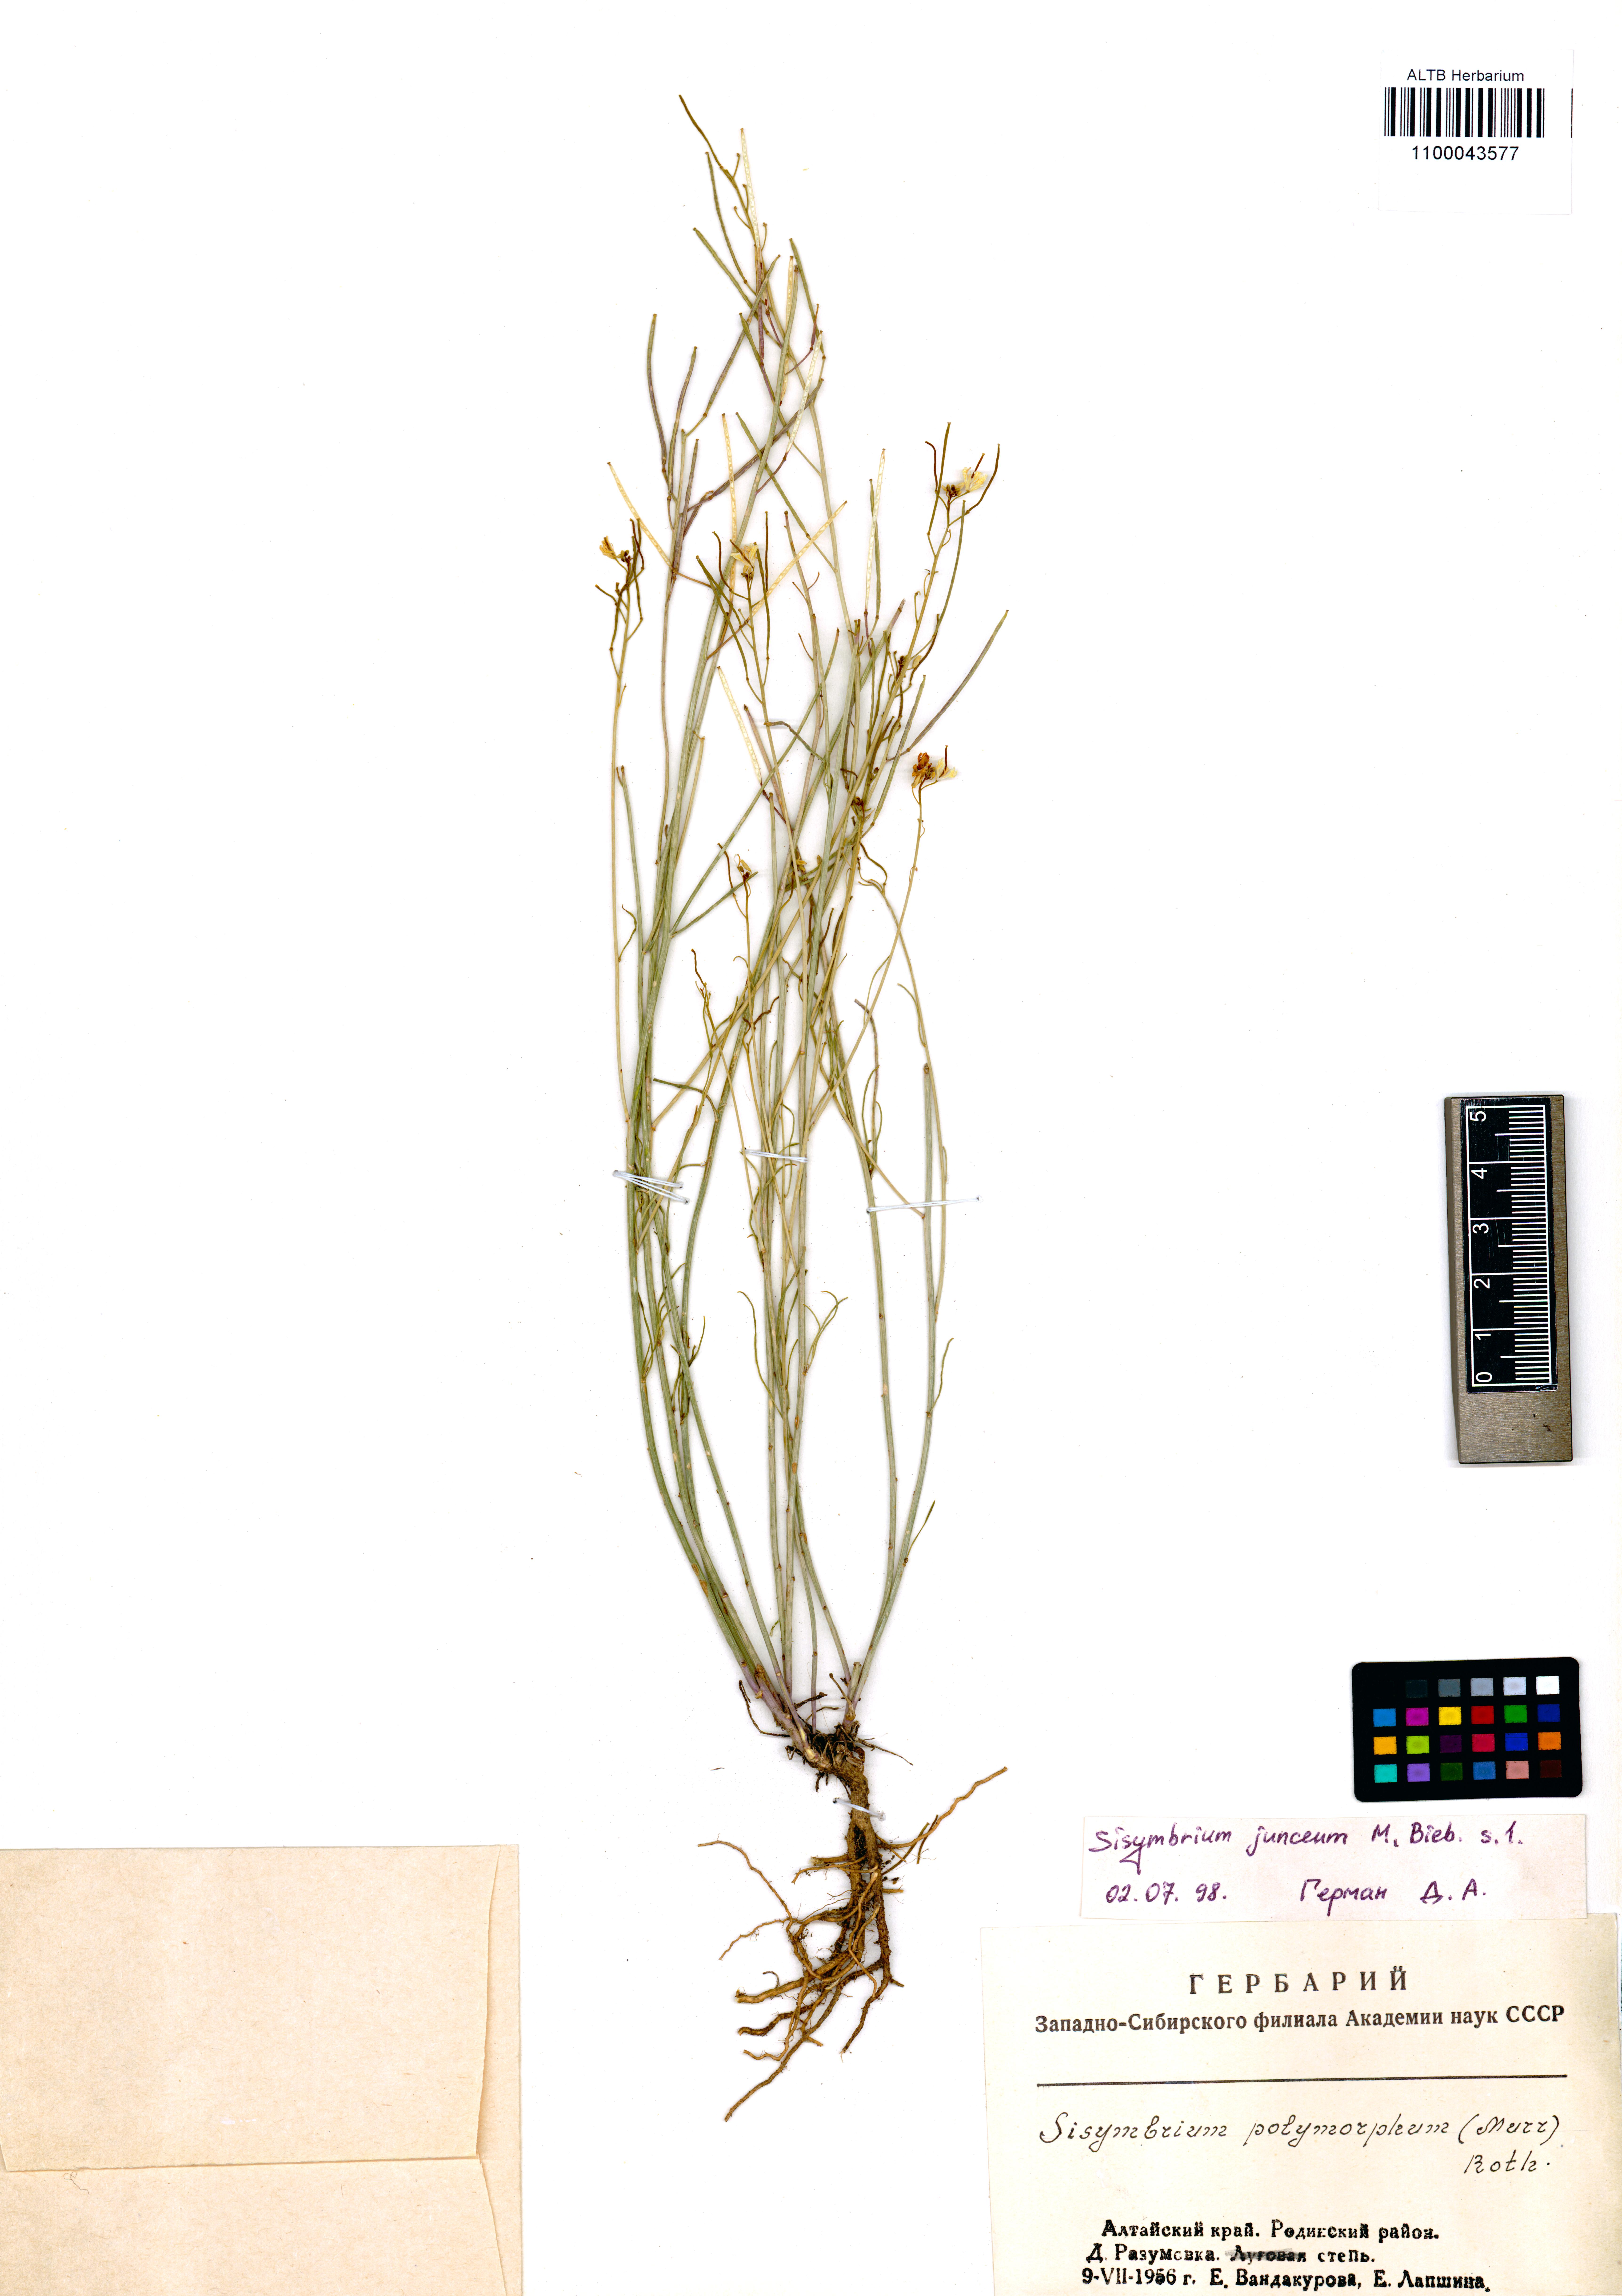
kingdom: Plantae
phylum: Tracheophyta
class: Magnoliopsida
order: Brassicales
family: Brassicaceae
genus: Sisymbrium
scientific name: Sisymbrium polymorphum
